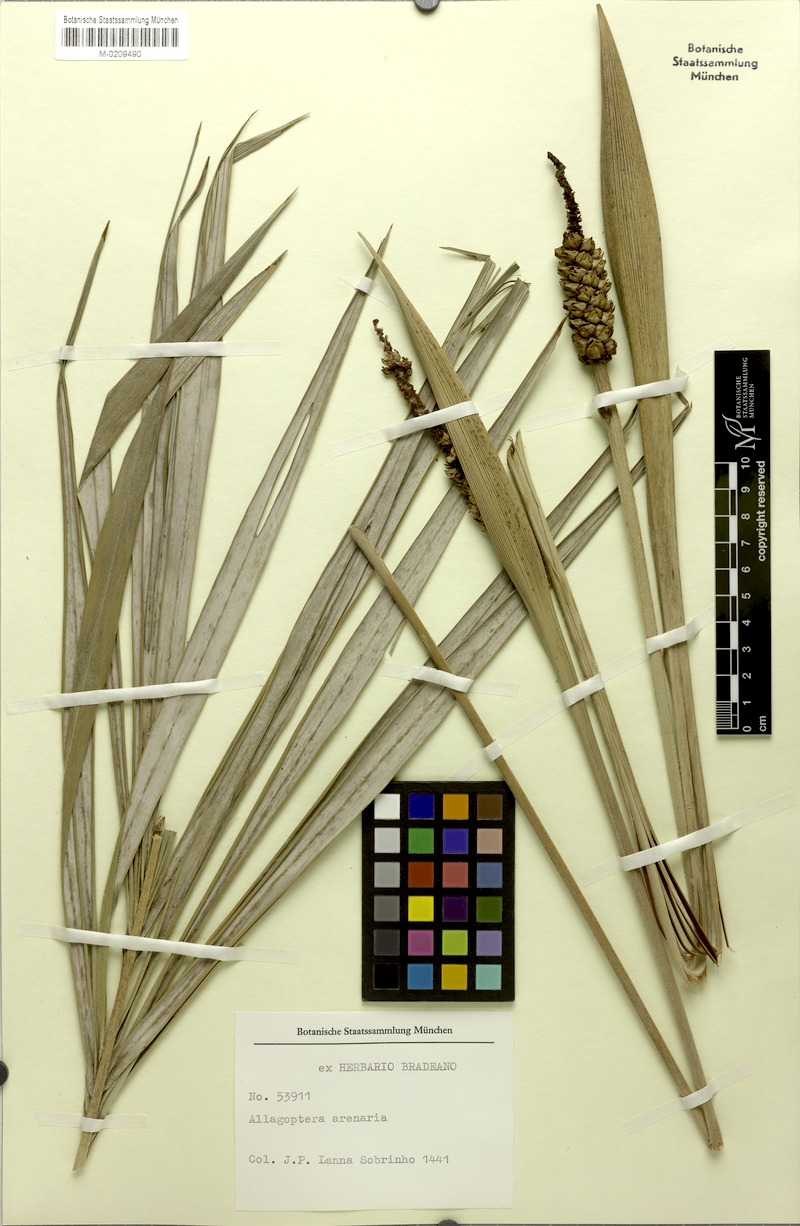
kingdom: Plantae
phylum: Tracheophyta
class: Liliopsida
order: Arecales
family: Arecaceae
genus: Allagoptera
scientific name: Allagoptera arenaria
